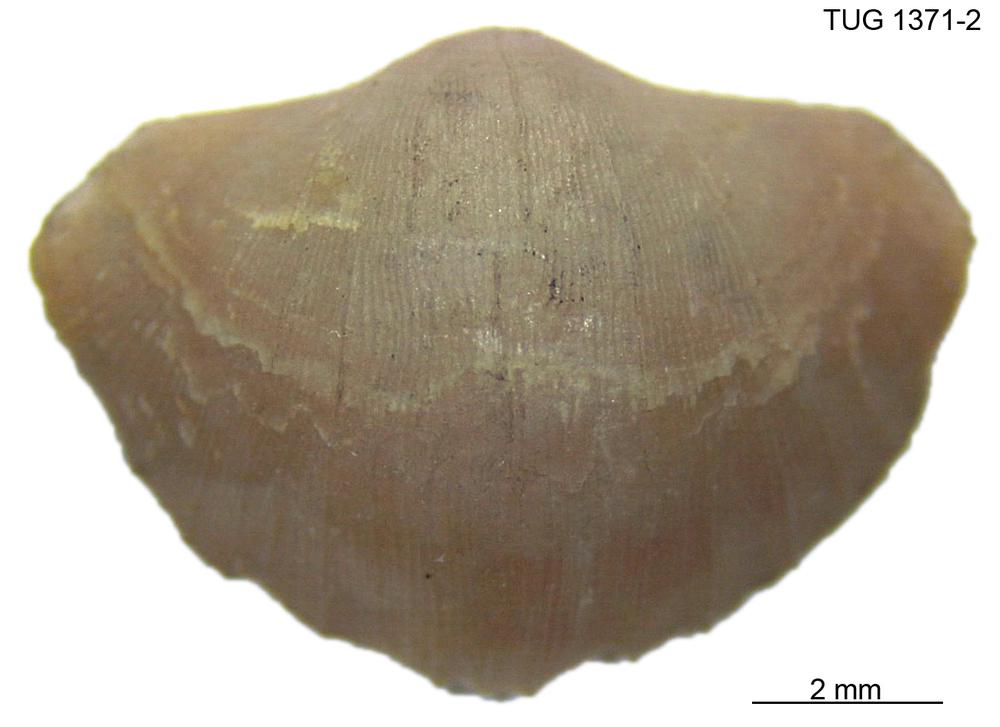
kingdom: Animalia
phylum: Brachiopoda
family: Sowerbyellidae
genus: Eochonetes
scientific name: Eochonetes
